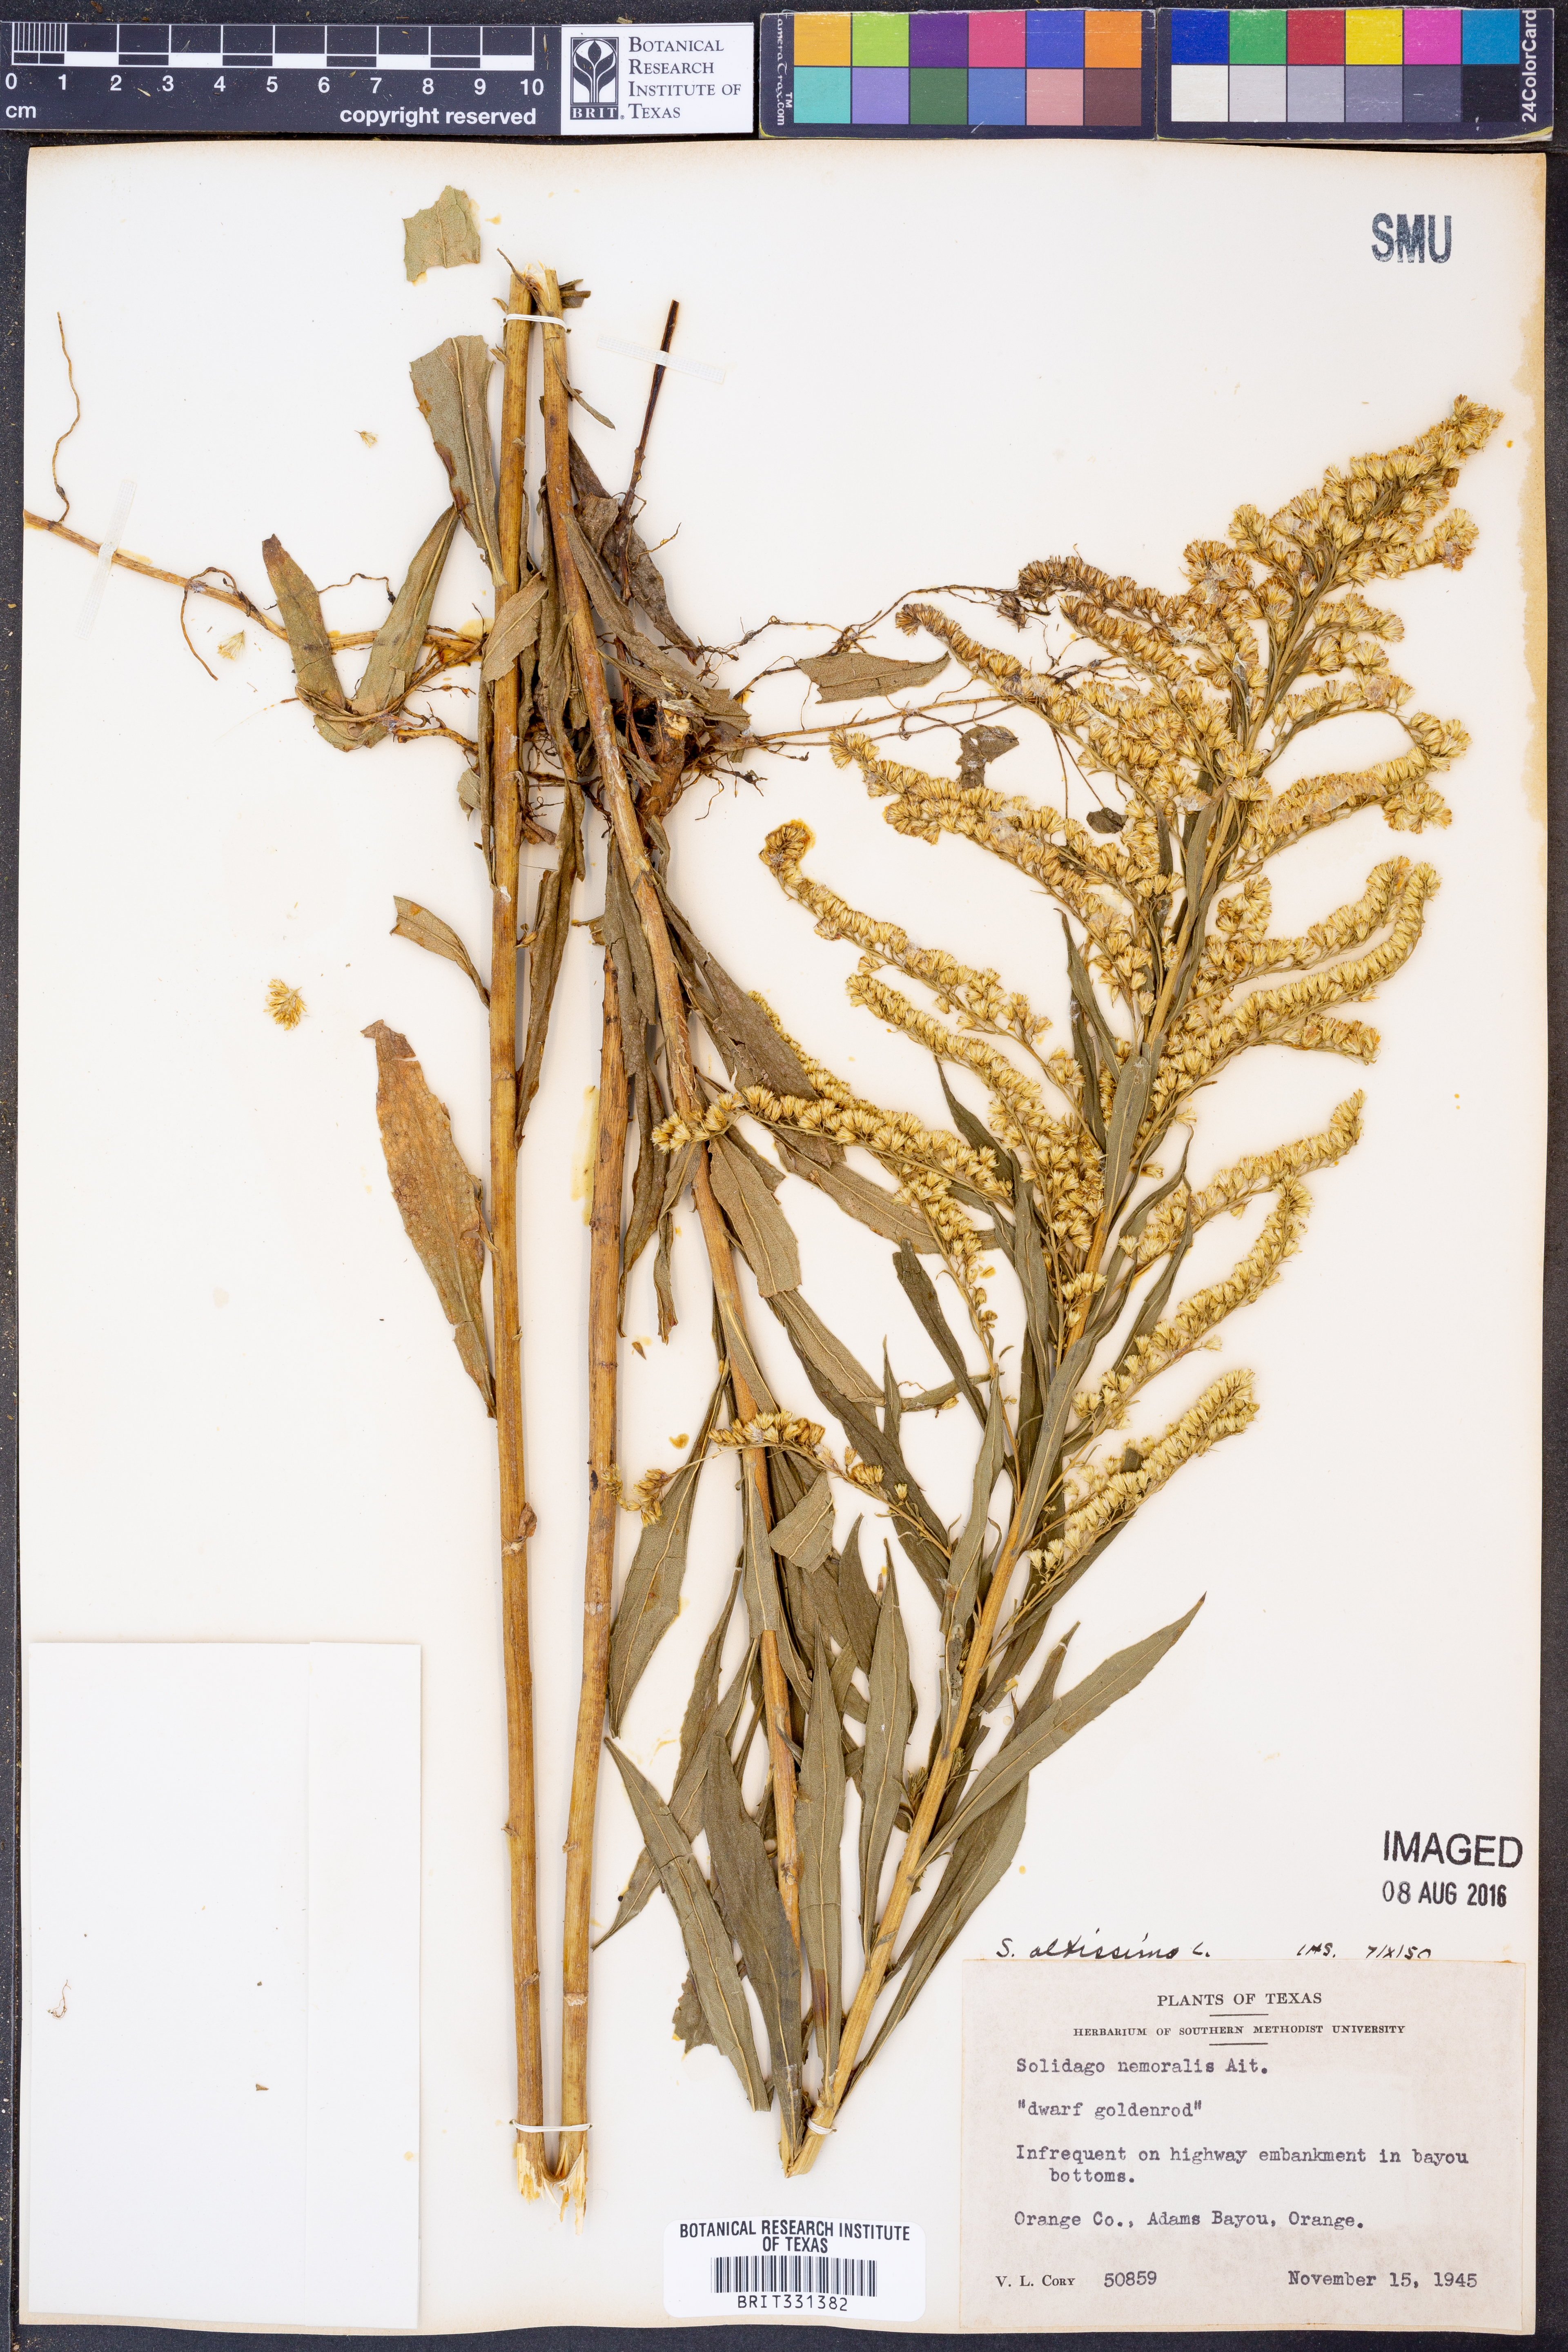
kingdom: Plantae
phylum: Tracheophyta
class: Magnoliopsida
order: Asterales
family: Asteraceae
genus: Solidago
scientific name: Solidago altissima
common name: Late goldenrod
